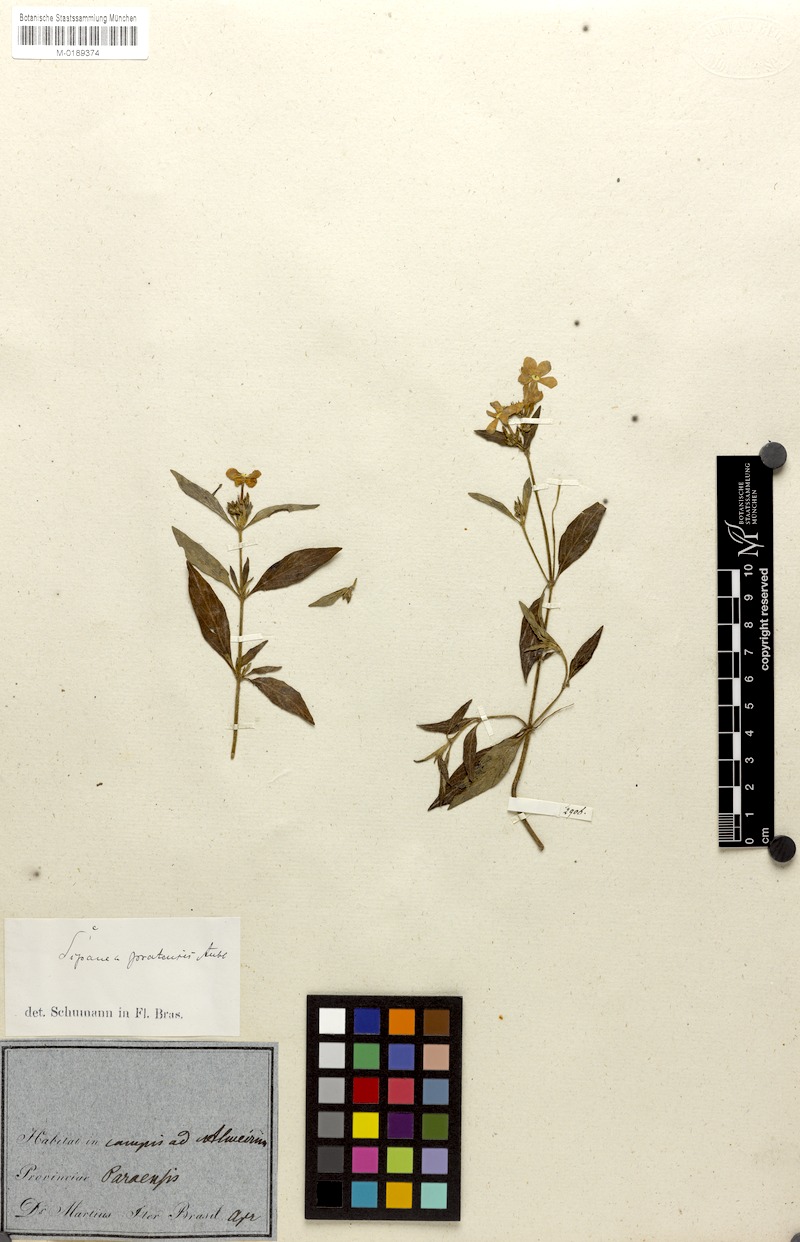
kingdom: Plantae
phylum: Tracheophyta
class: Magnoliopsida
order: Gentianales
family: Rubiaceae
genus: Sipanea
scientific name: Sipanea pratensis
